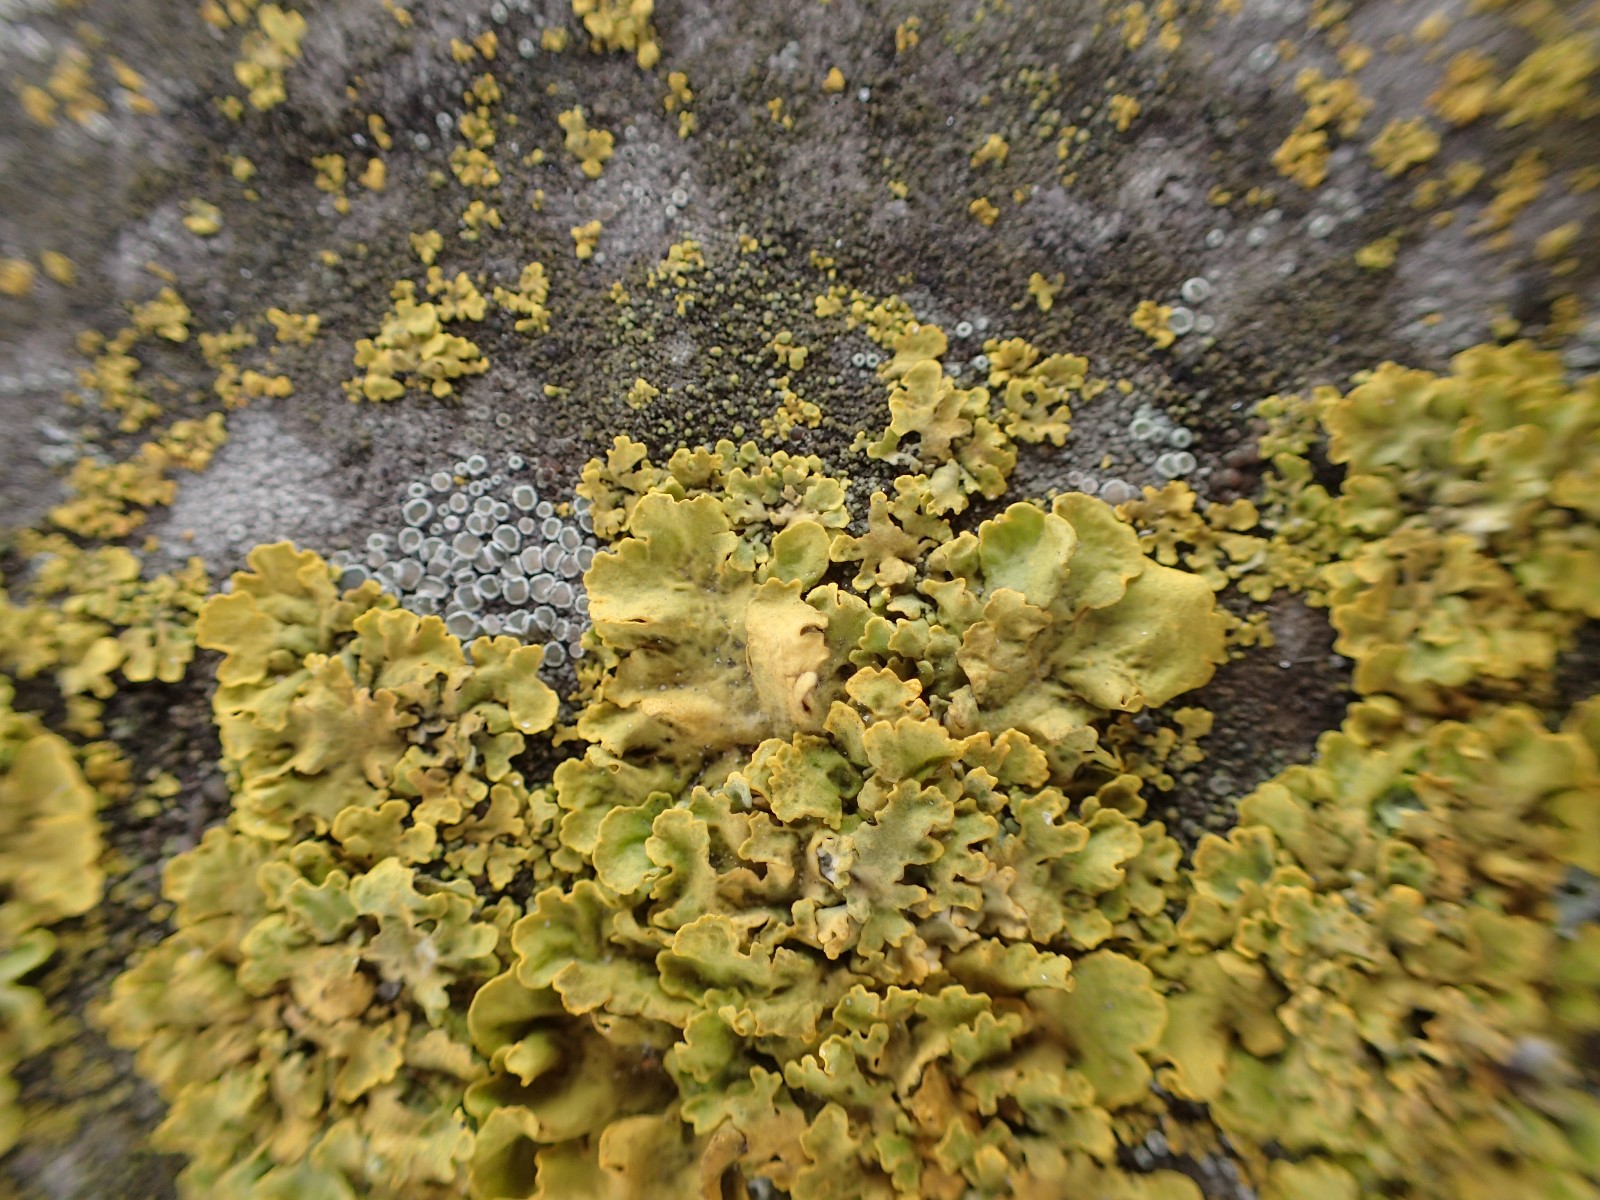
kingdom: Fungi
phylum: Ascomycota
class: Lecanoromycetes
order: Teloschistales
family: Teloschistaceae
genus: Xanthoria
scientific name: Xanthoria parietina
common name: almindelig væggelav
